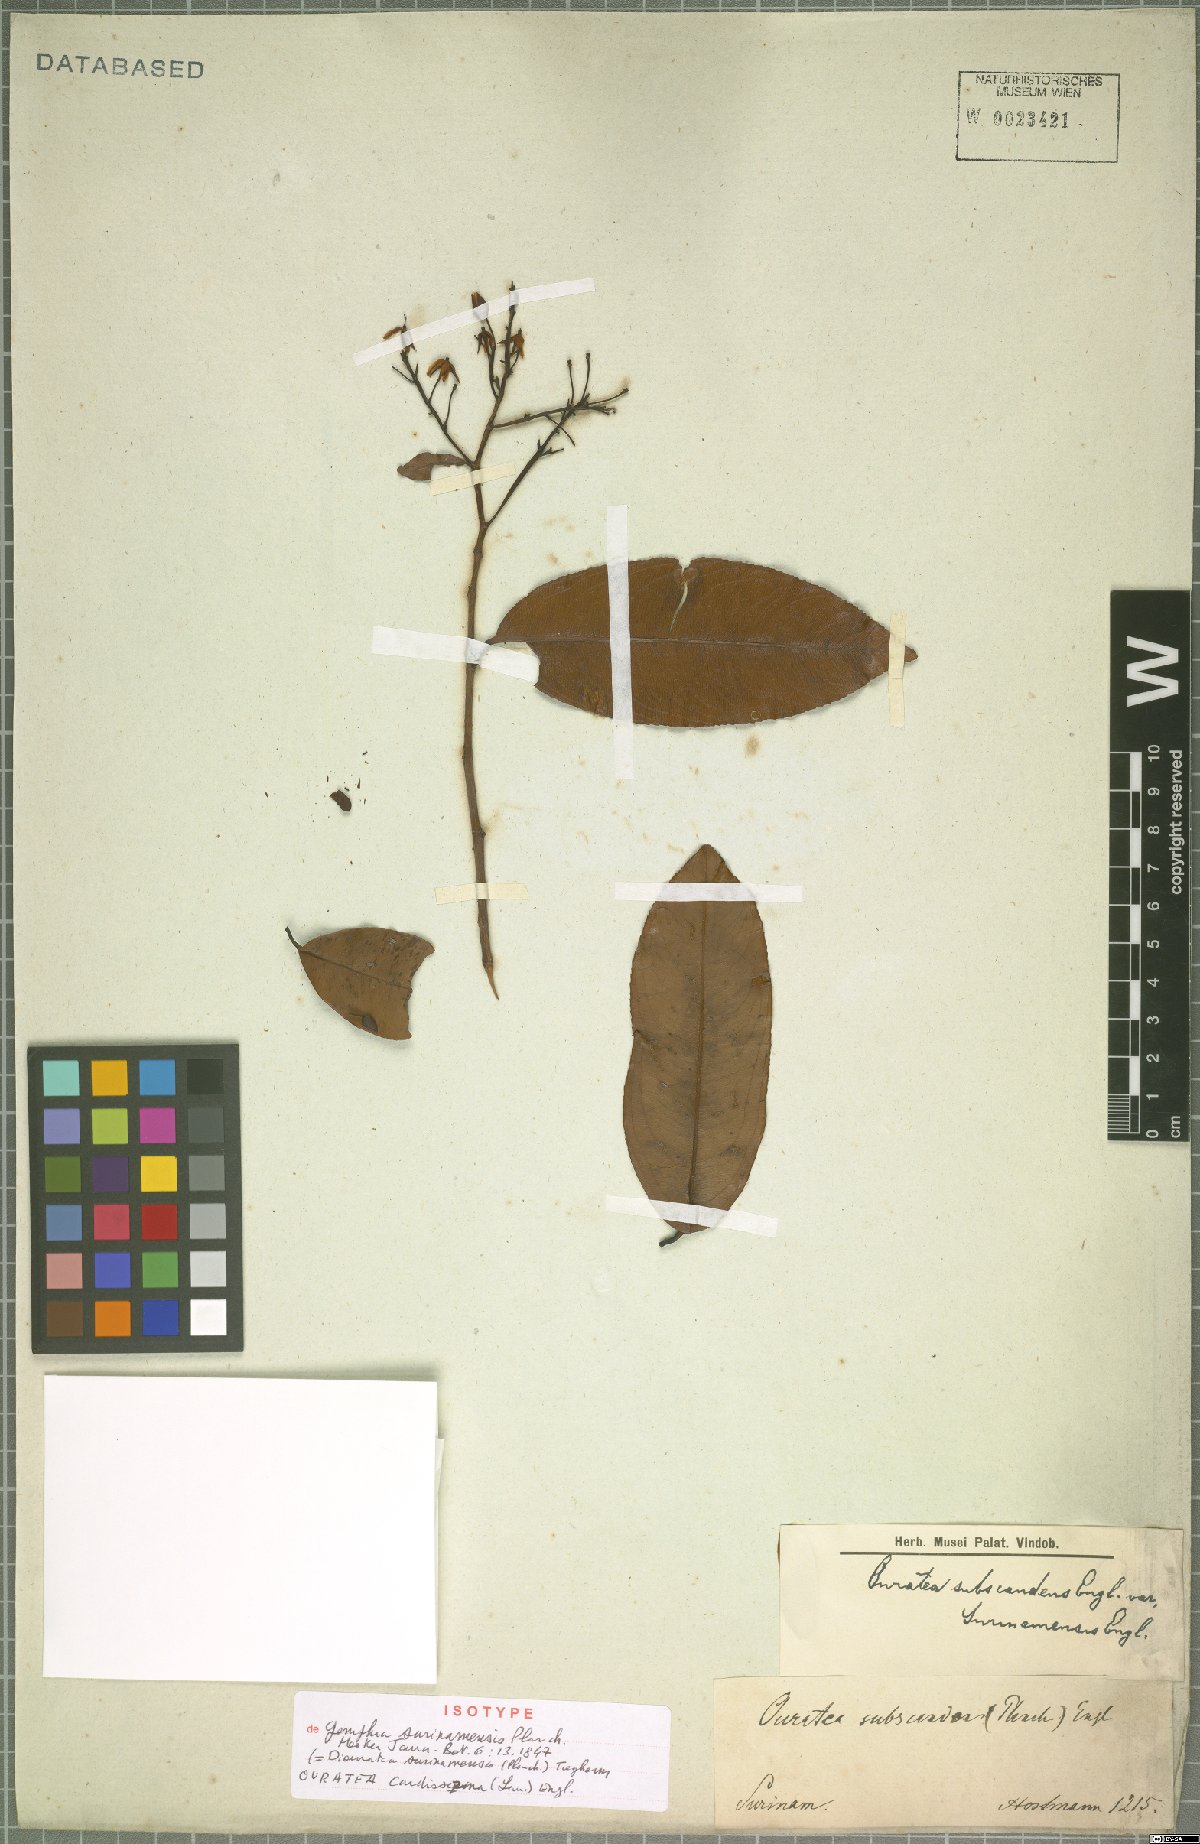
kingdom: Plantae
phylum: Tracheophyta
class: Magnoliopsida
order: Malpighiales
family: Ochnaceae
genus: Ouratea
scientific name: Ouratea cardiosperma
